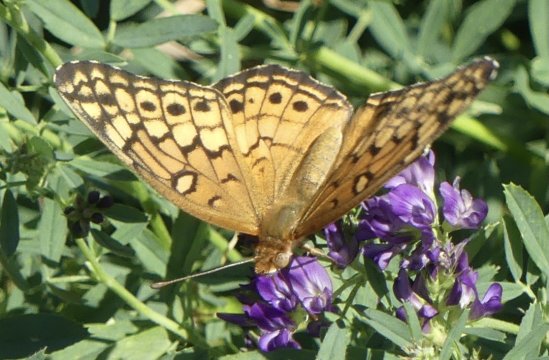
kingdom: Animalia
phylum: Arthropoda
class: Insecta
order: Lepidoptera
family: Nymphalidae
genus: Euptoieta
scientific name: Euptoieta claudia
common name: Variegated Fritillary
